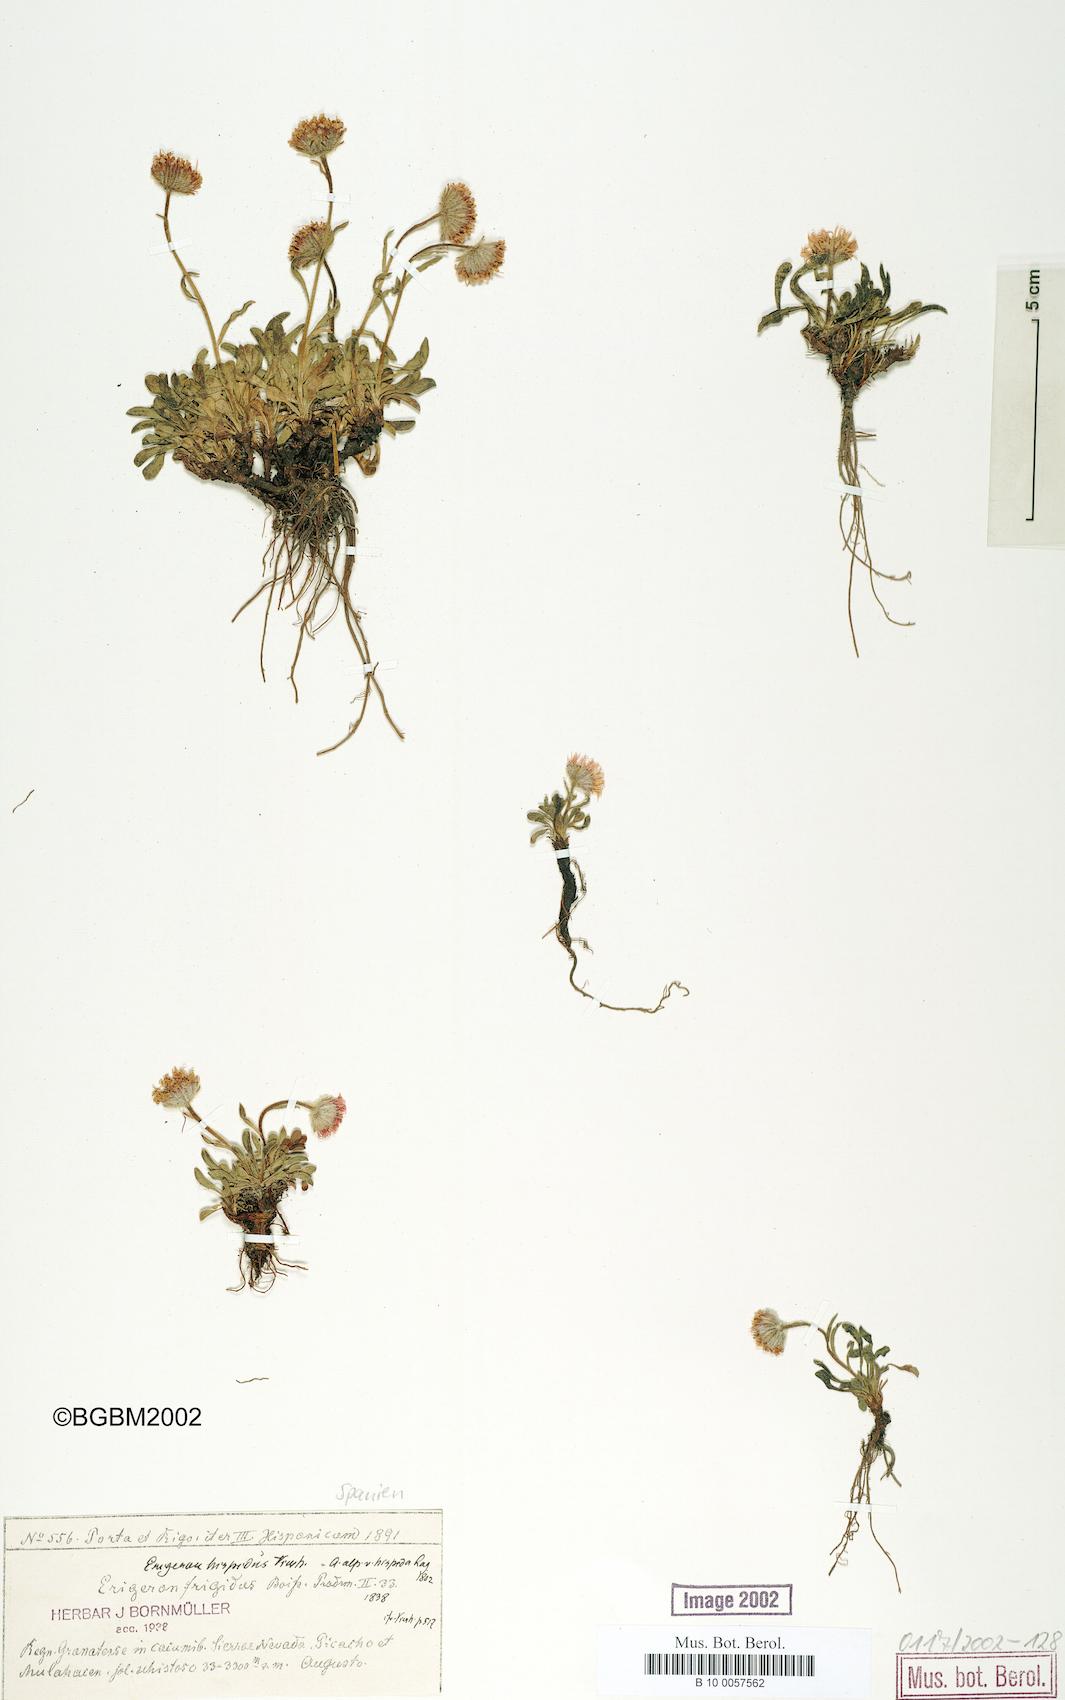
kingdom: Plantae
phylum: Tracheophyta
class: Magnoliopsida
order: Asterales
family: Asteraceae
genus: Erigeron
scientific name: Erigeron glaucus
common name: Seaside daisy
